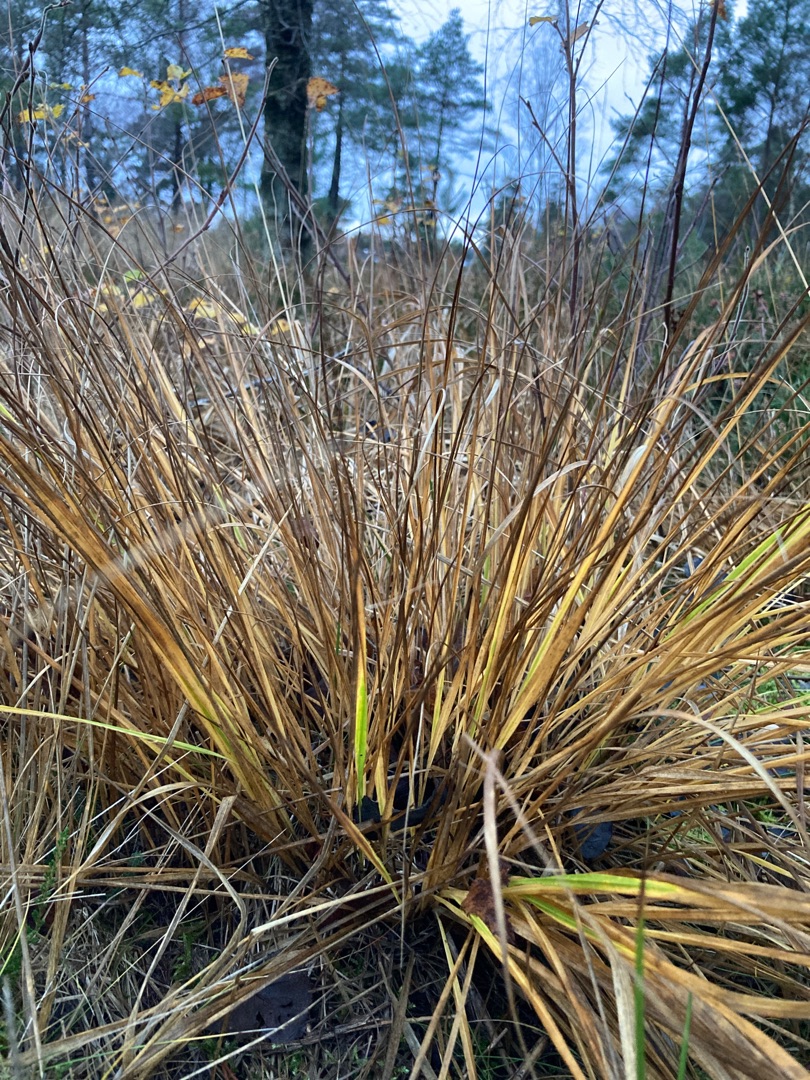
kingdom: Plantae
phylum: Tracheophyta
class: Liliopsida
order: Poales
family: Poaceae
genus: Molinia
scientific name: Molinia caerulea
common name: Blåtop
